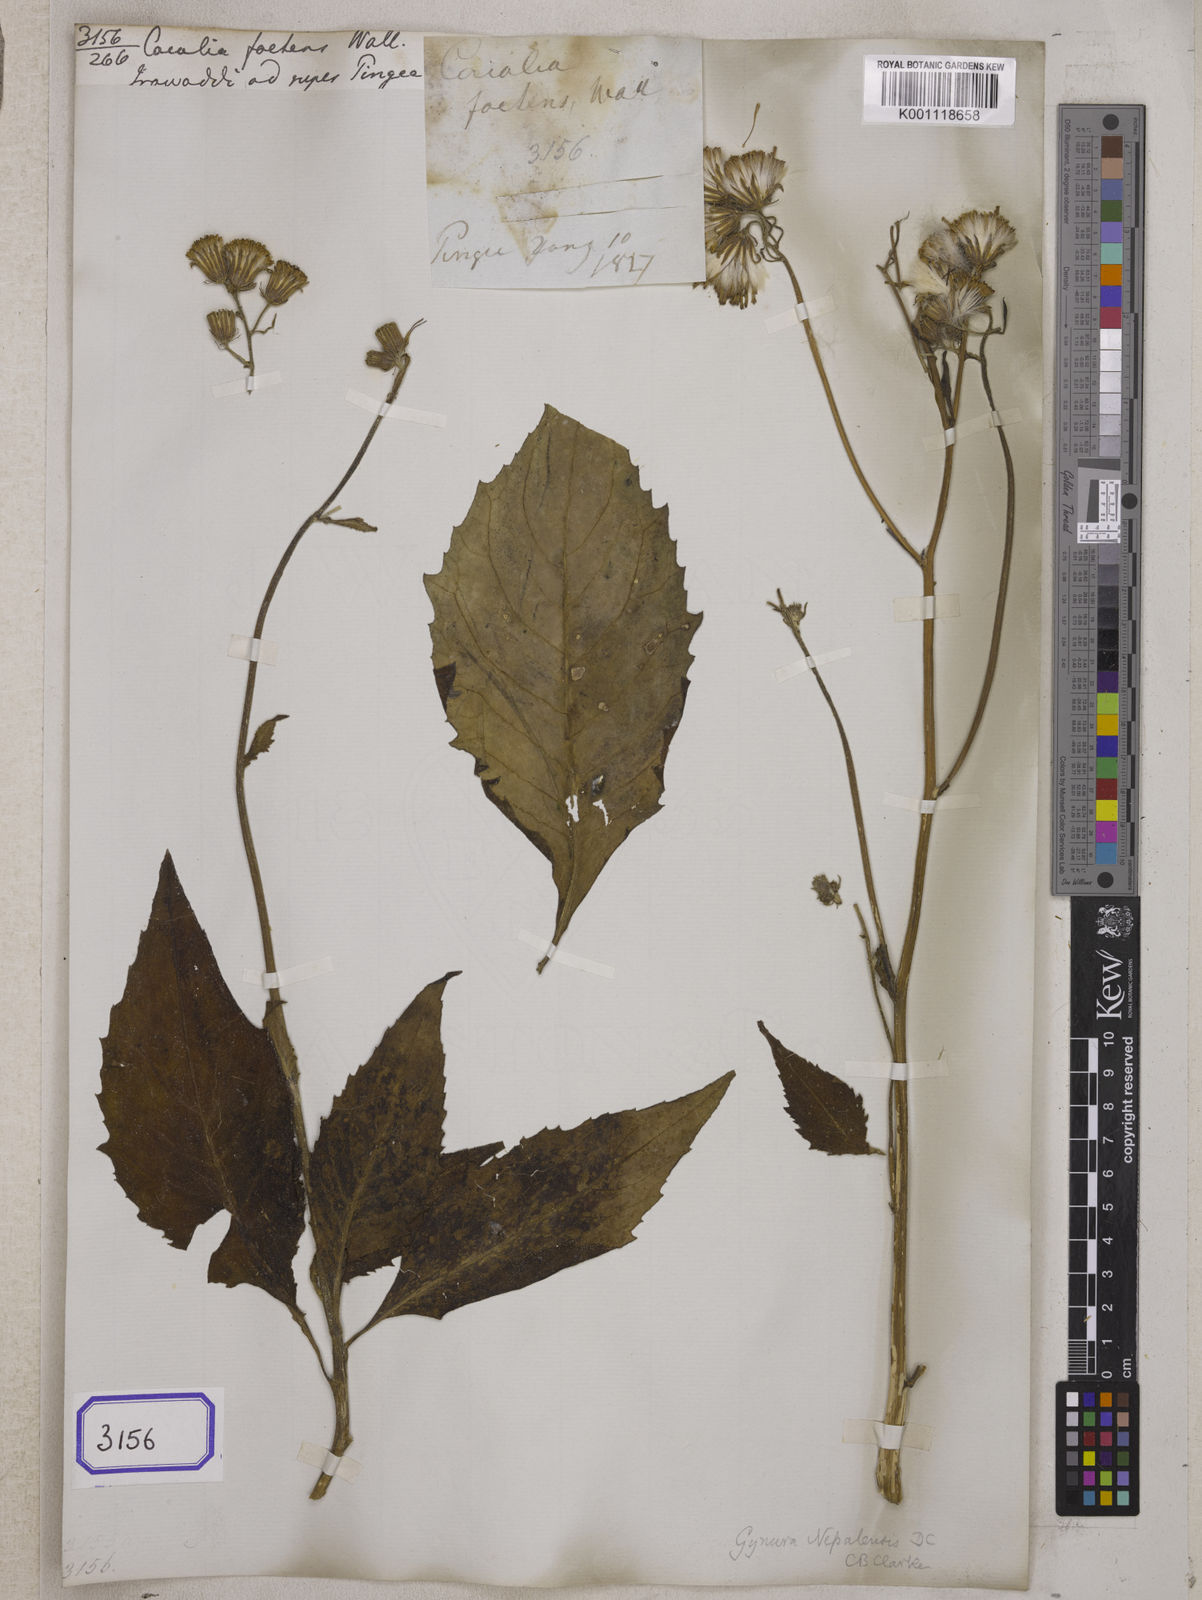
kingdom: Plantae
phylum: Tracheophyta
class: Magnoliopsida
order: Asterales
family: Asteraceae
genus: Gynura
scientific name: Gynura nepalensis
